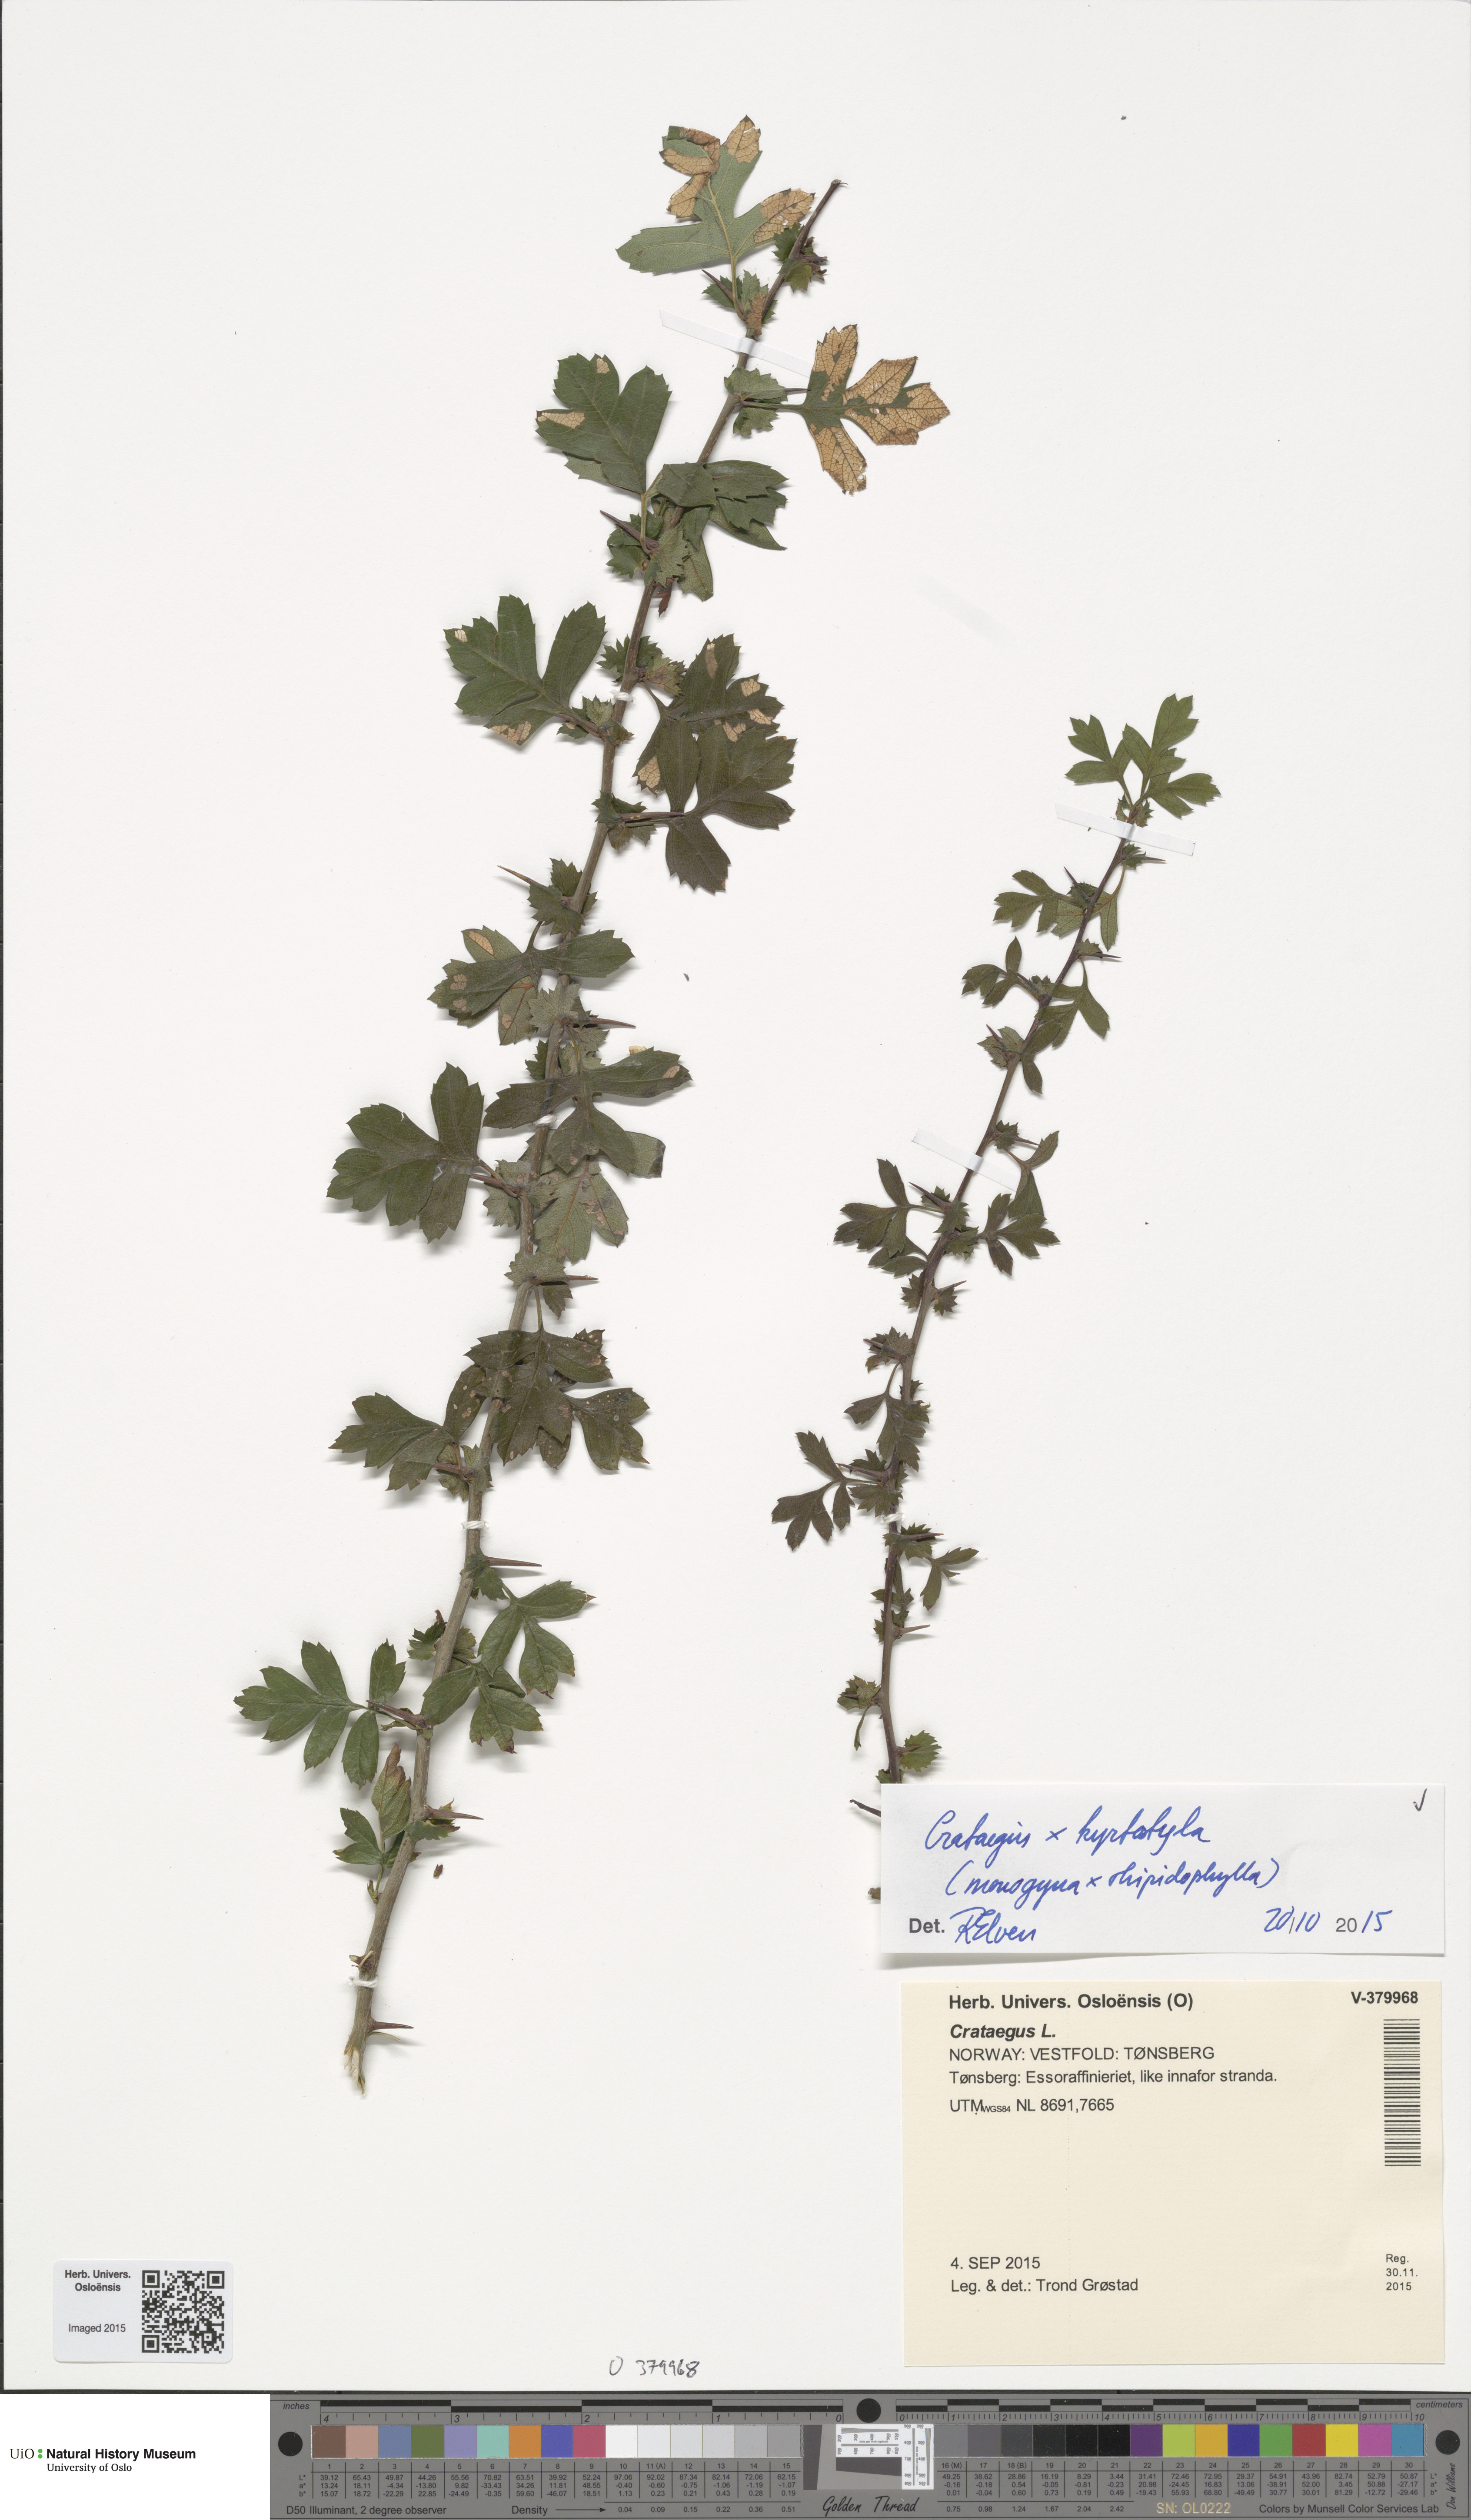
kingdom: Plantae
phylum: Tracheophyta
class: Magnoliopsida
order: Rosales
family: Rosaceae
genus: Crataegus
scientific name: Crataegus
